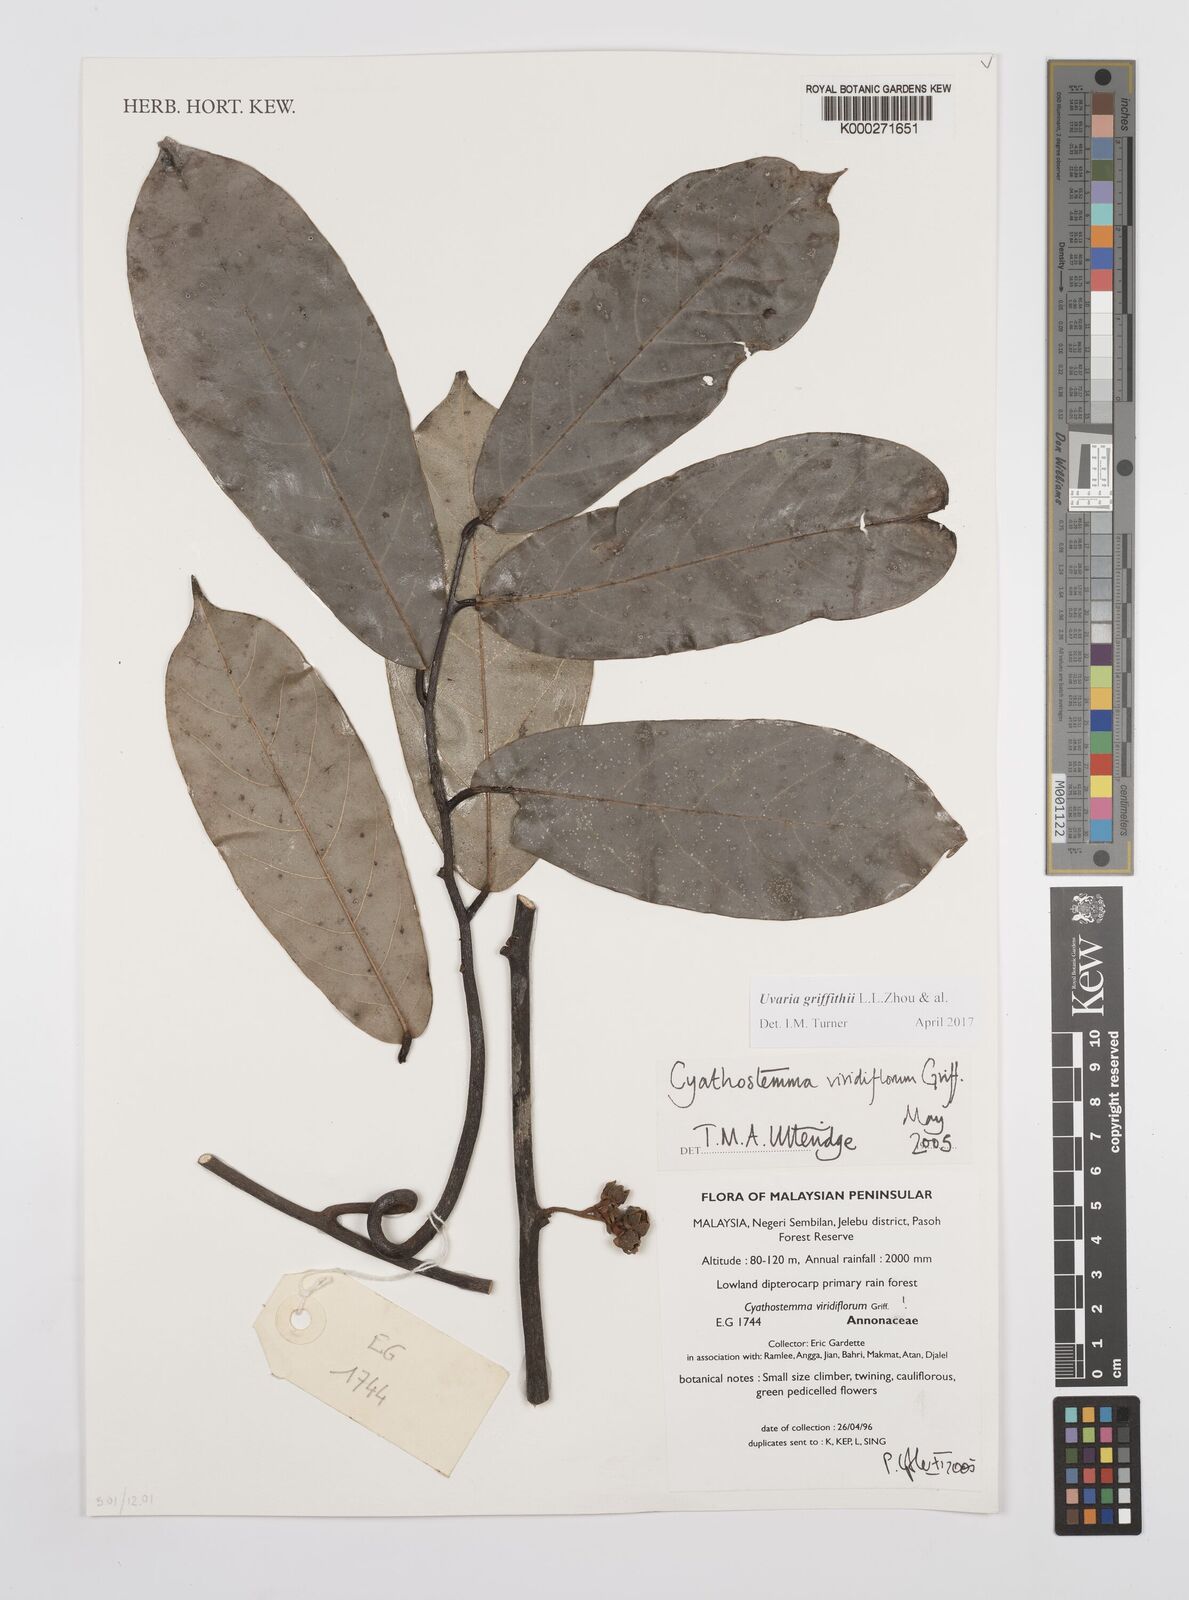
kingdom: Plantae
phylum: Tracheophyta
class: Magnoliopsida
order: Magnoliales
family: Annonaceae
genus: Uvaria
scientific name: Uvaria griffithii
